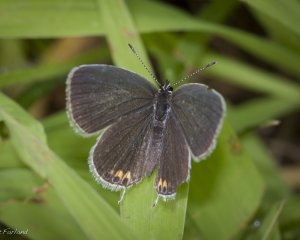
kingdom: Animalia
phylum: Arthropoda
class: Insecta
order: Lepidoptera
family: Lycaenidae
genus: Elkalyce
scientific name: Elkalyce comyntas
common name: Eastern Tailed-Blue
